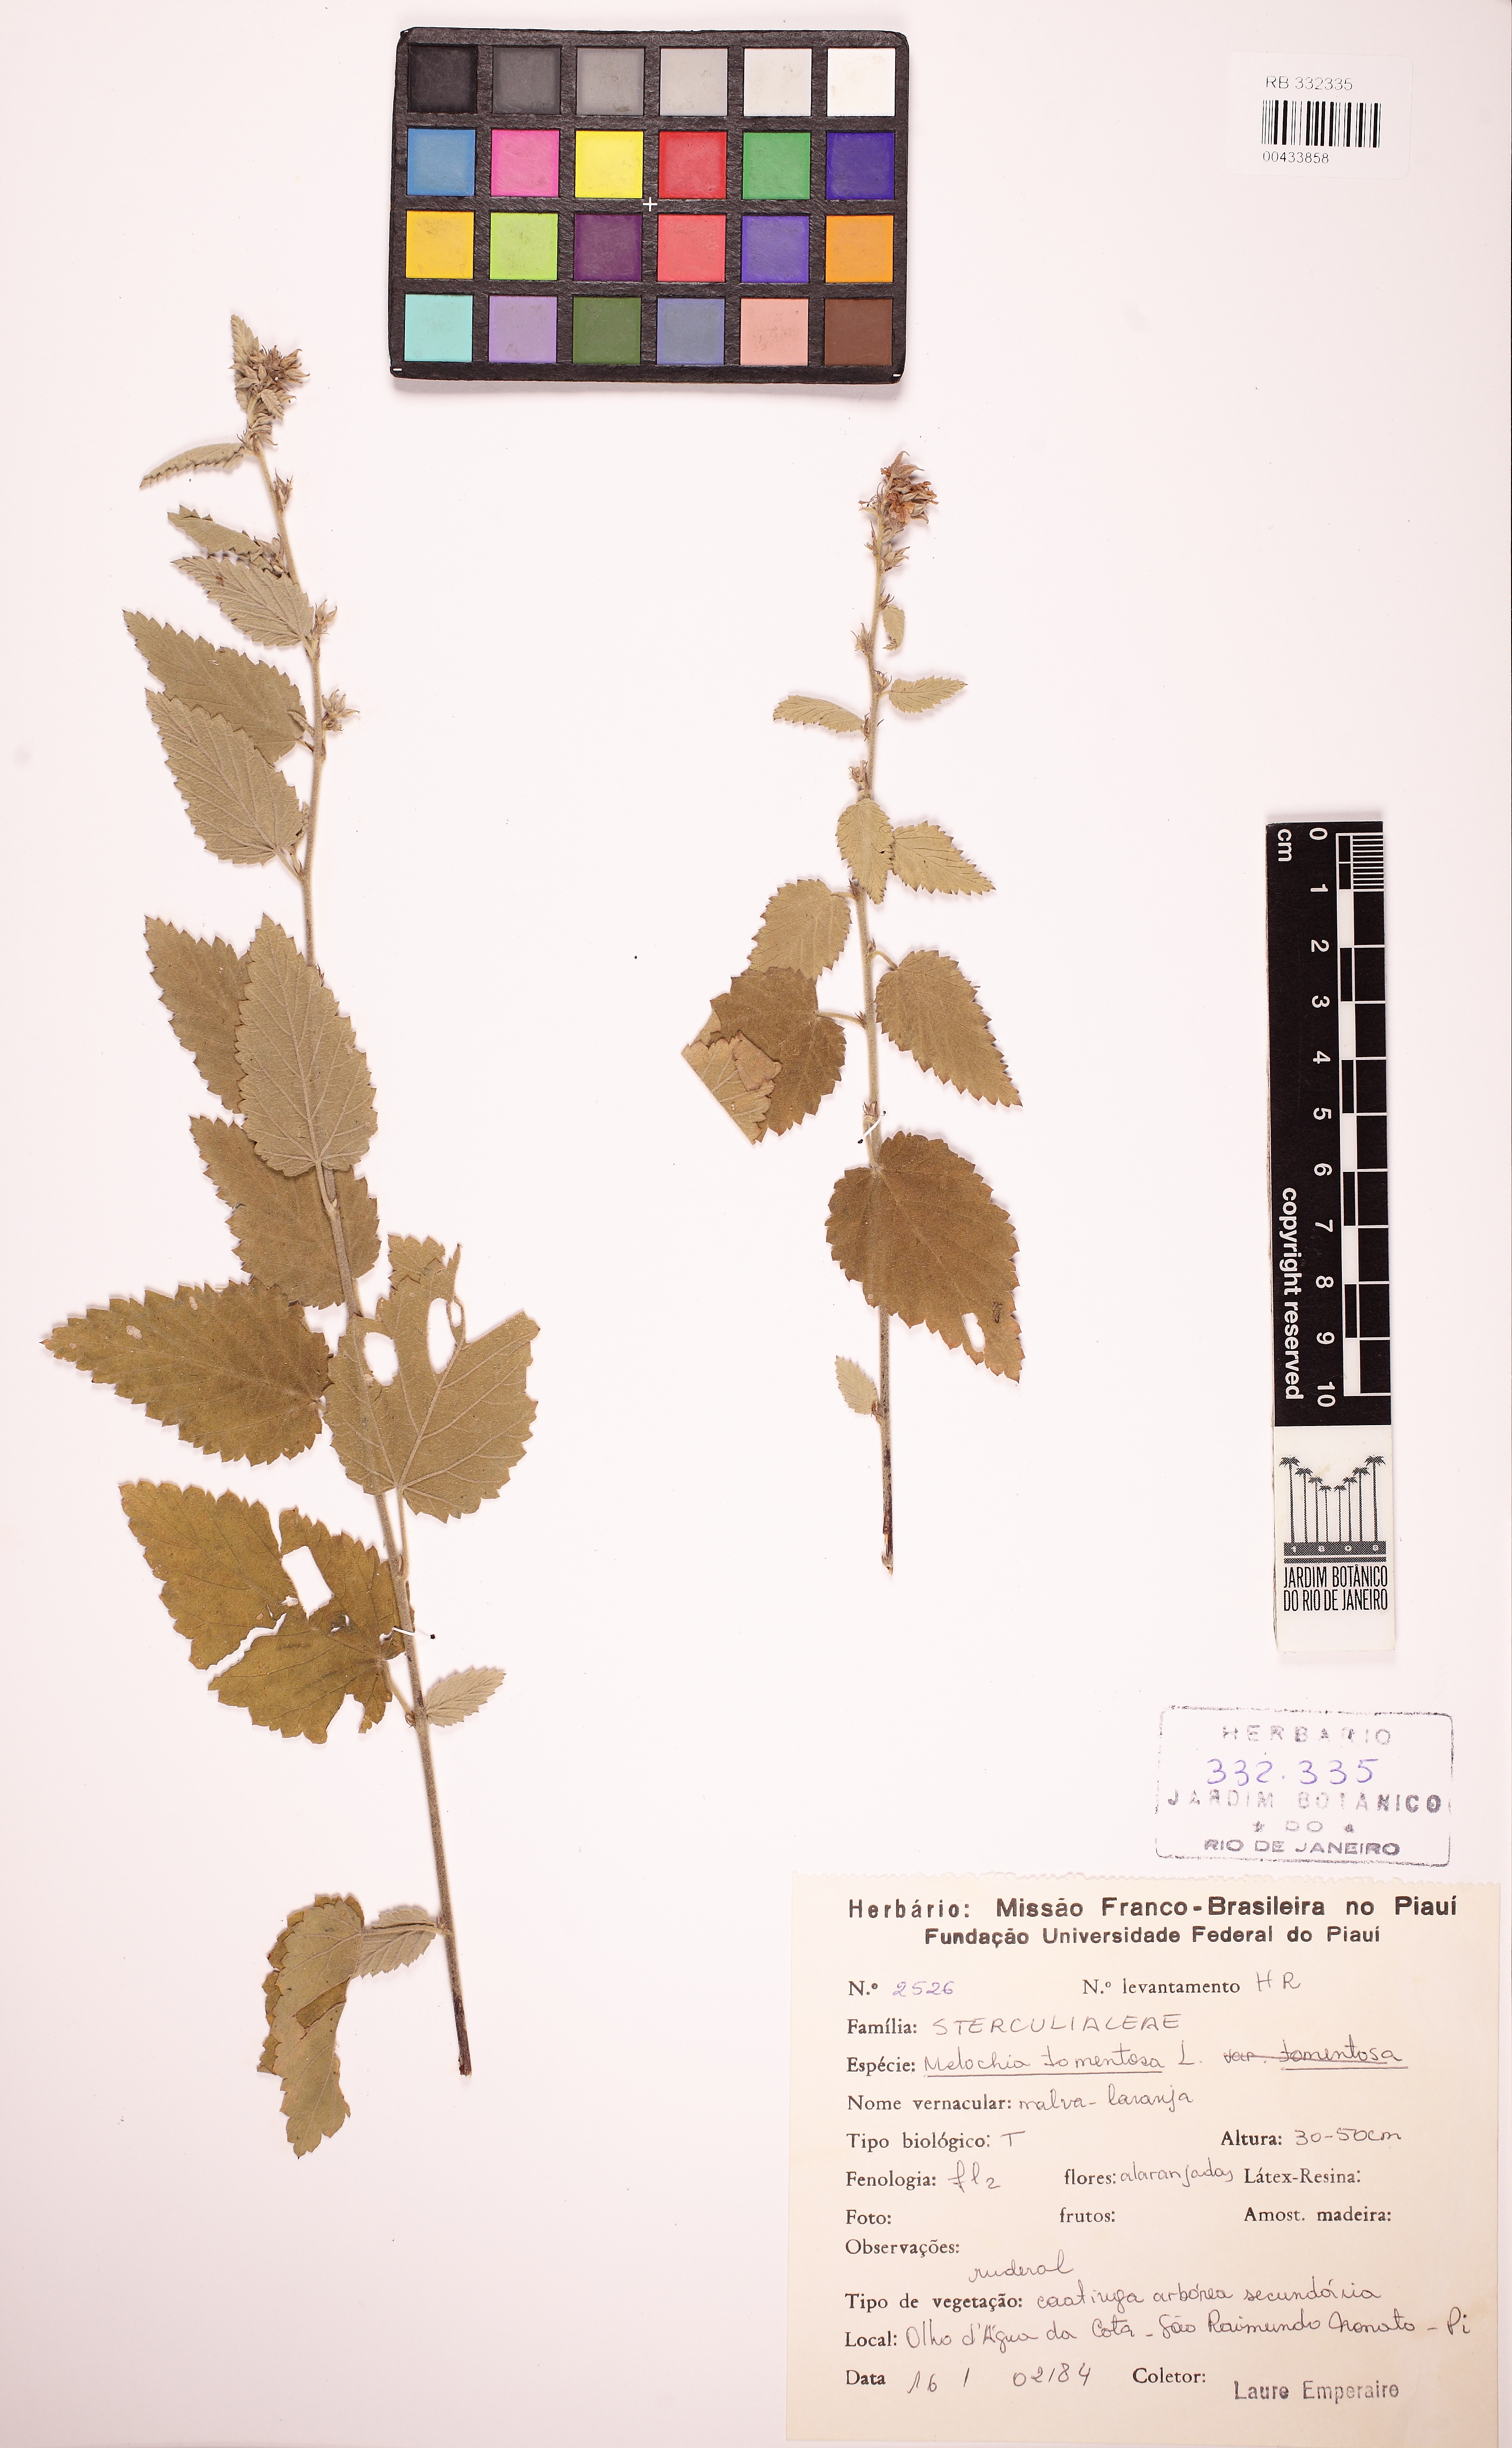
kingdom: Plantae
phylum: Tracheophyta
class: Magnoliopsida
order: Malvales
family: Malvaceae
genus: Melochia
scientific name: Melochia tomentosa
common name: Black torch
